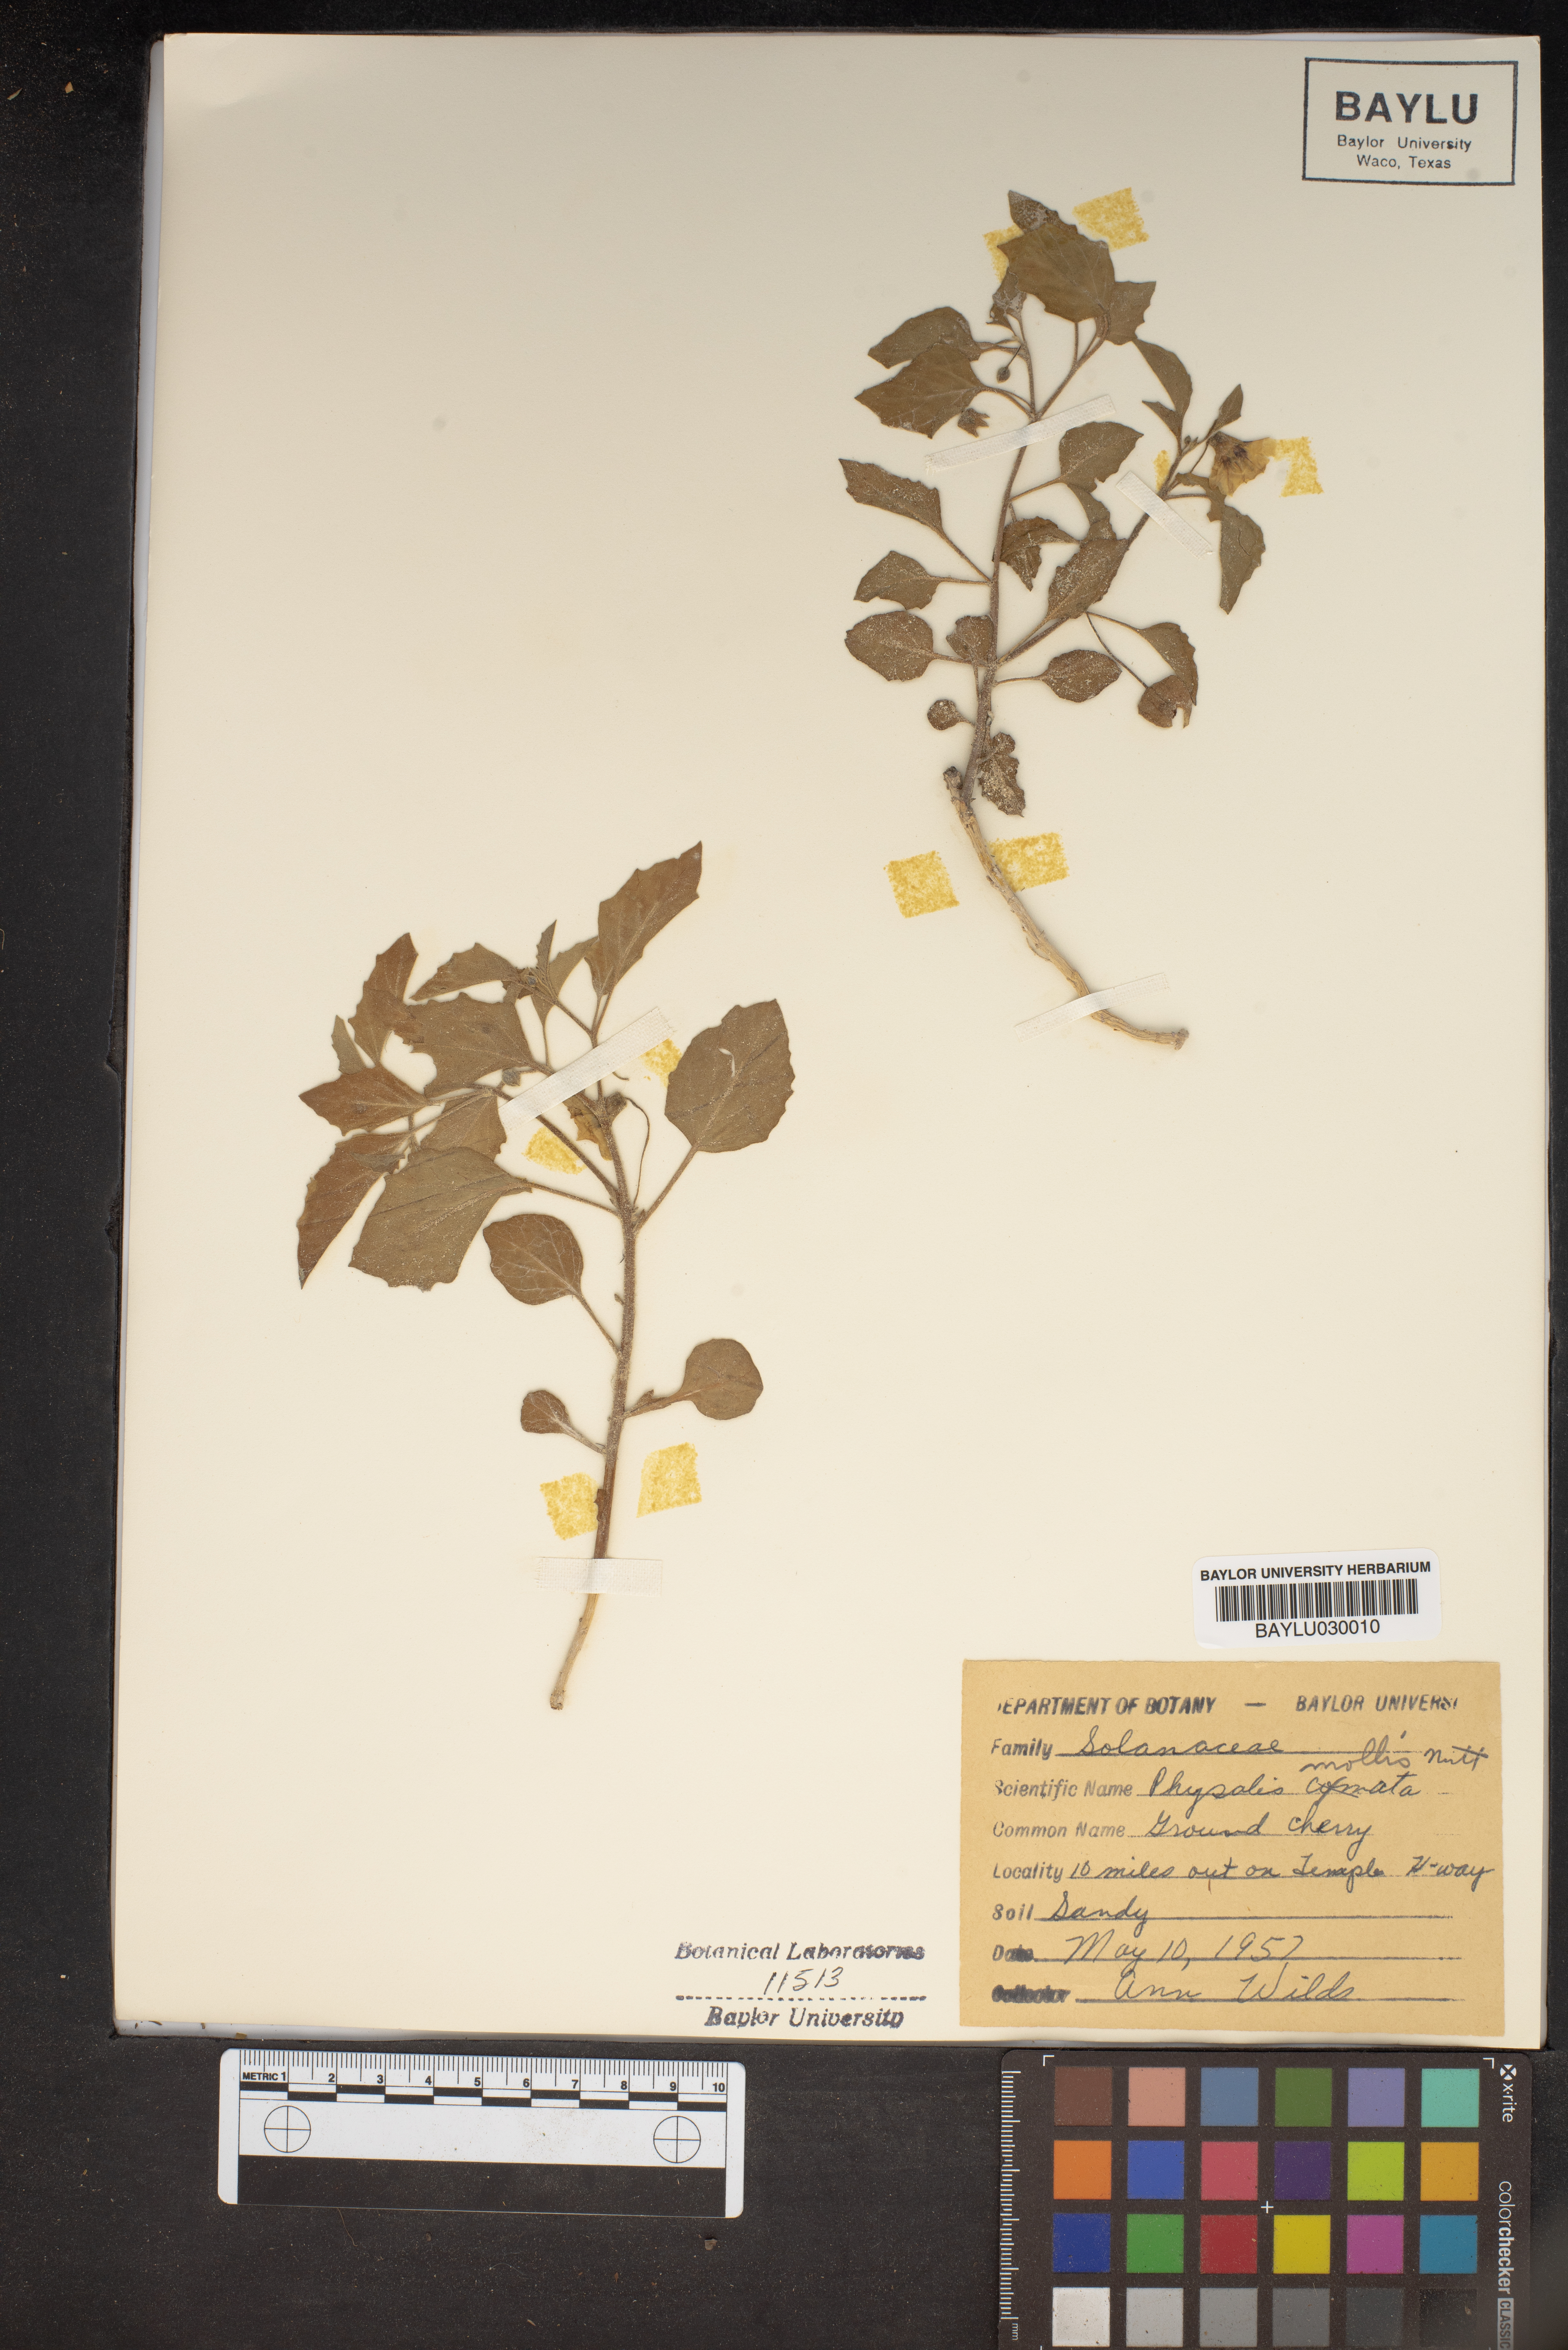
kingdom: Plantae
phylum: Tracheophyta
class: Magnoliopsida
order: Solanales
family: Solanaceae
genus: Physalis
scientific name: Physalis mollis
